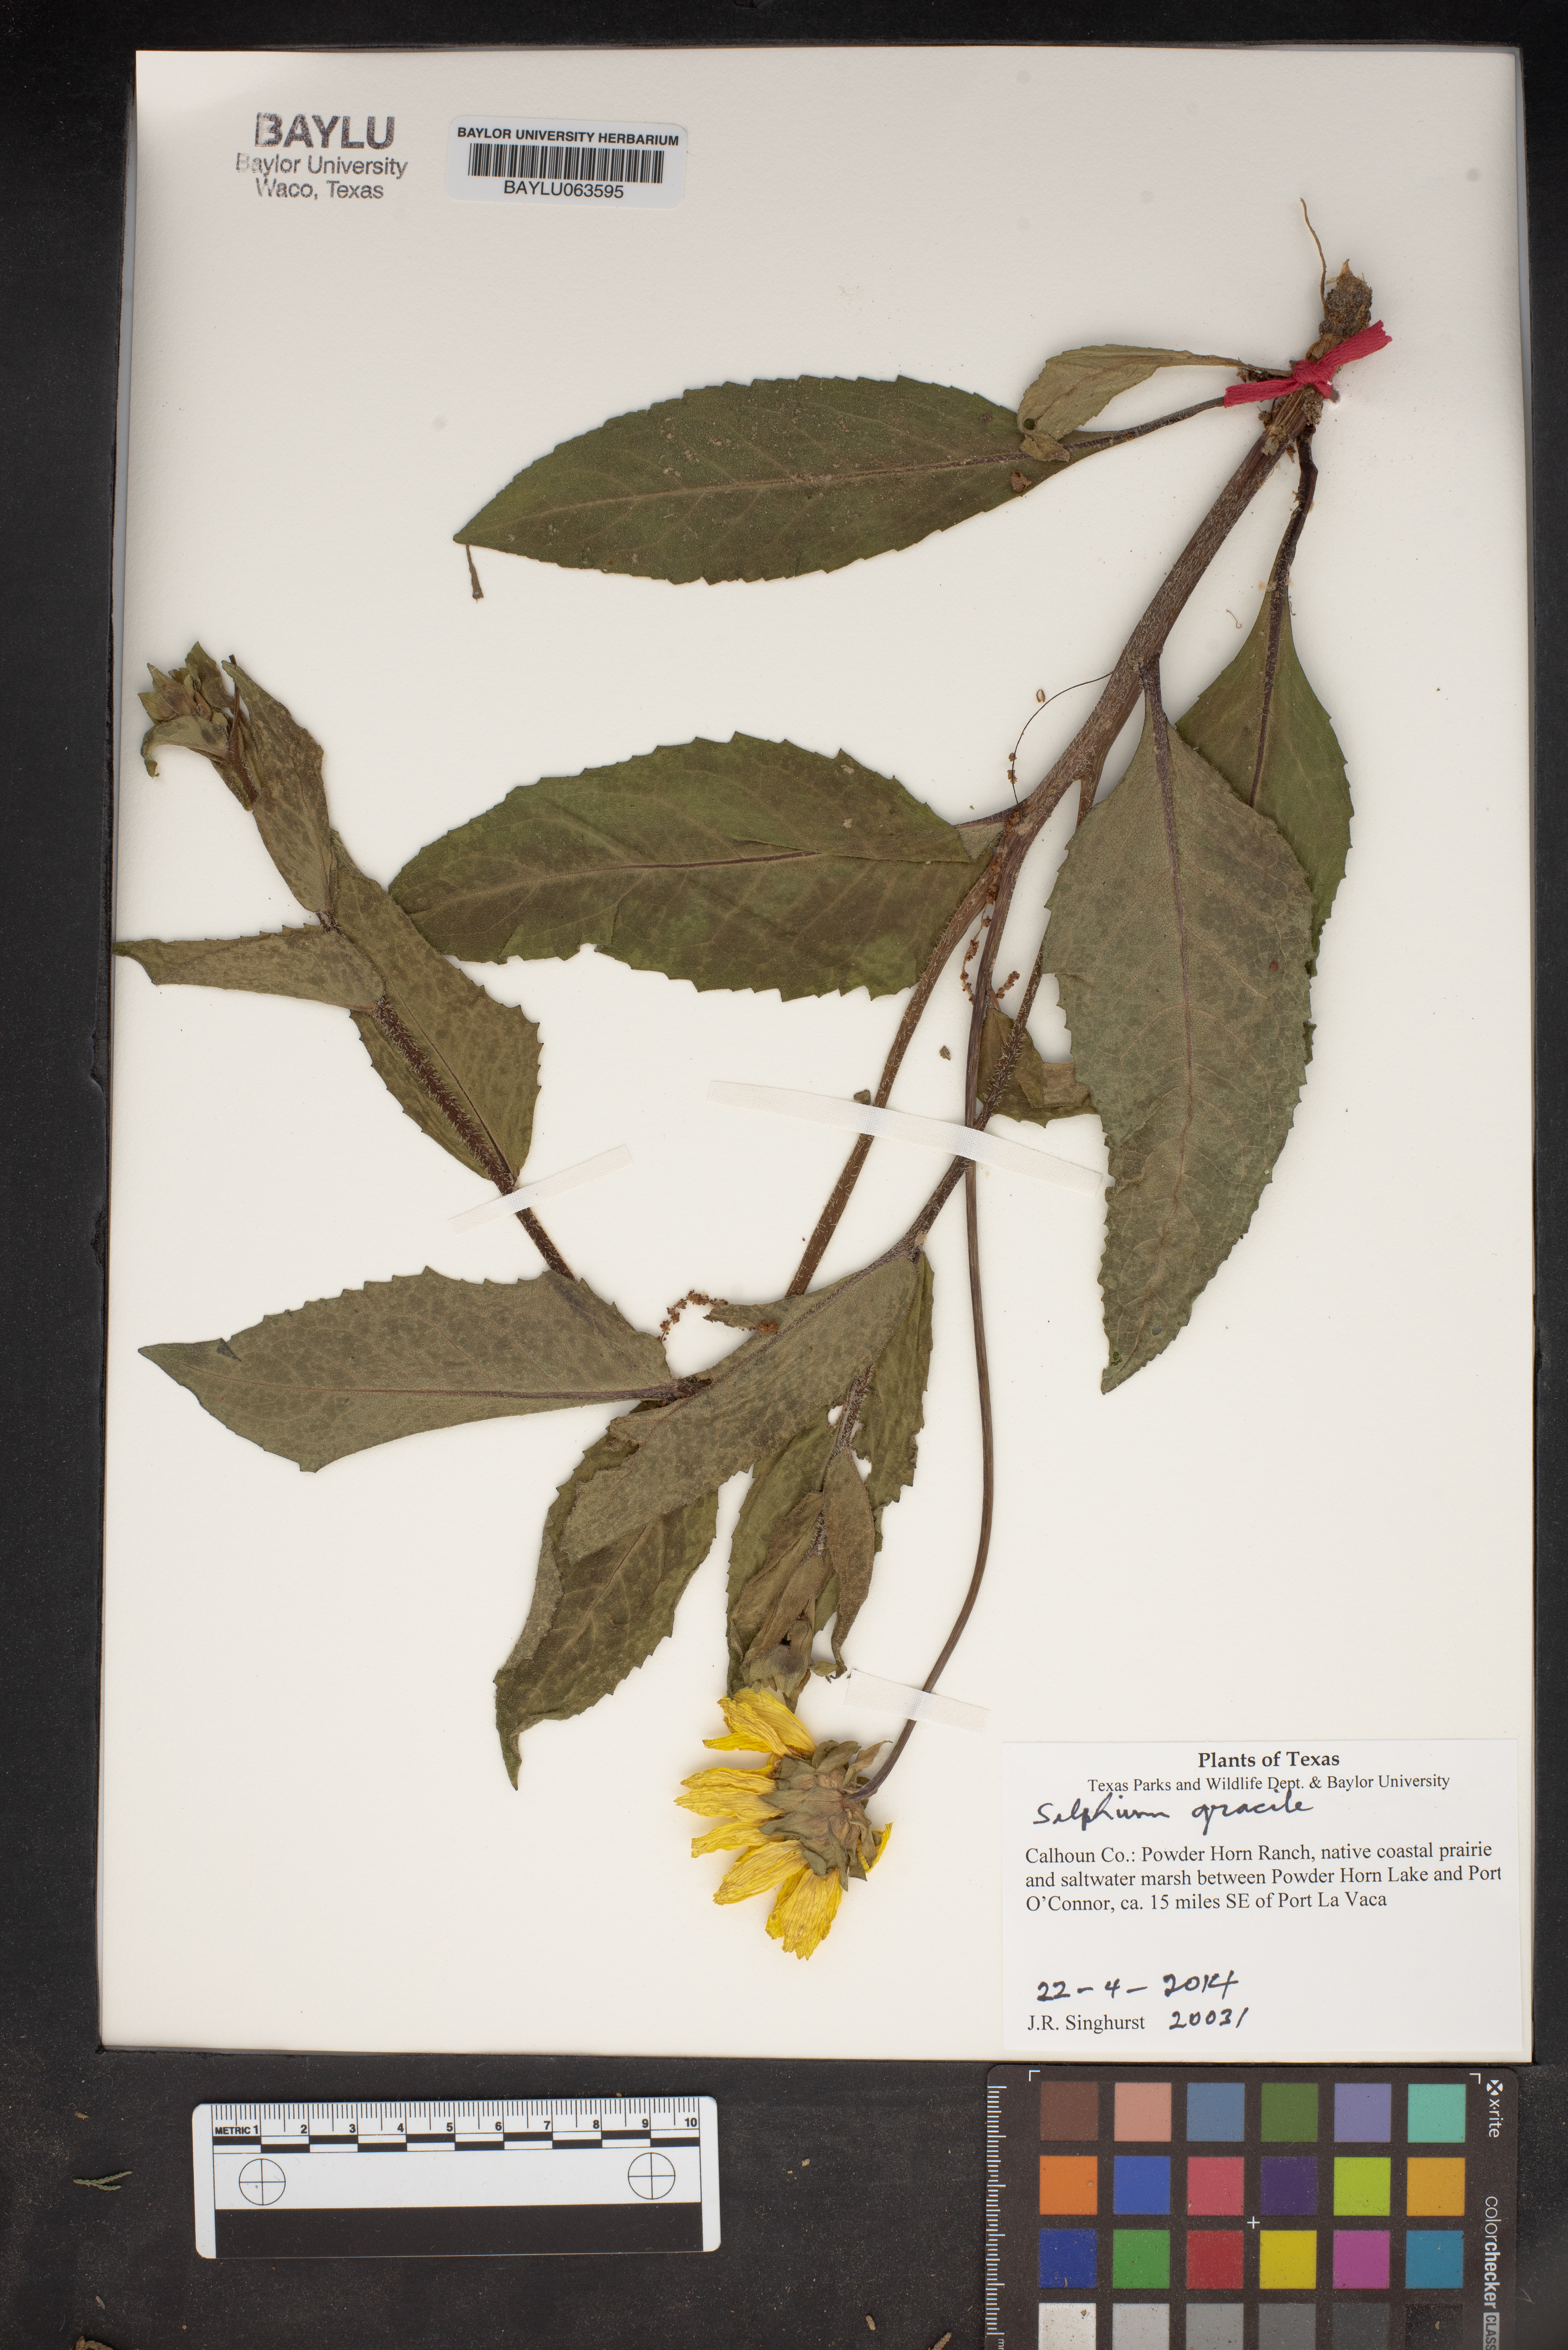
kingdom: Plantae
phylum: Tracheophyta
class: Magnoliopsida
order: Asterales
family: Asteraceae
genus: Silphium
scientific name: Silphium radula
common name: Roughleaf rosinweed
